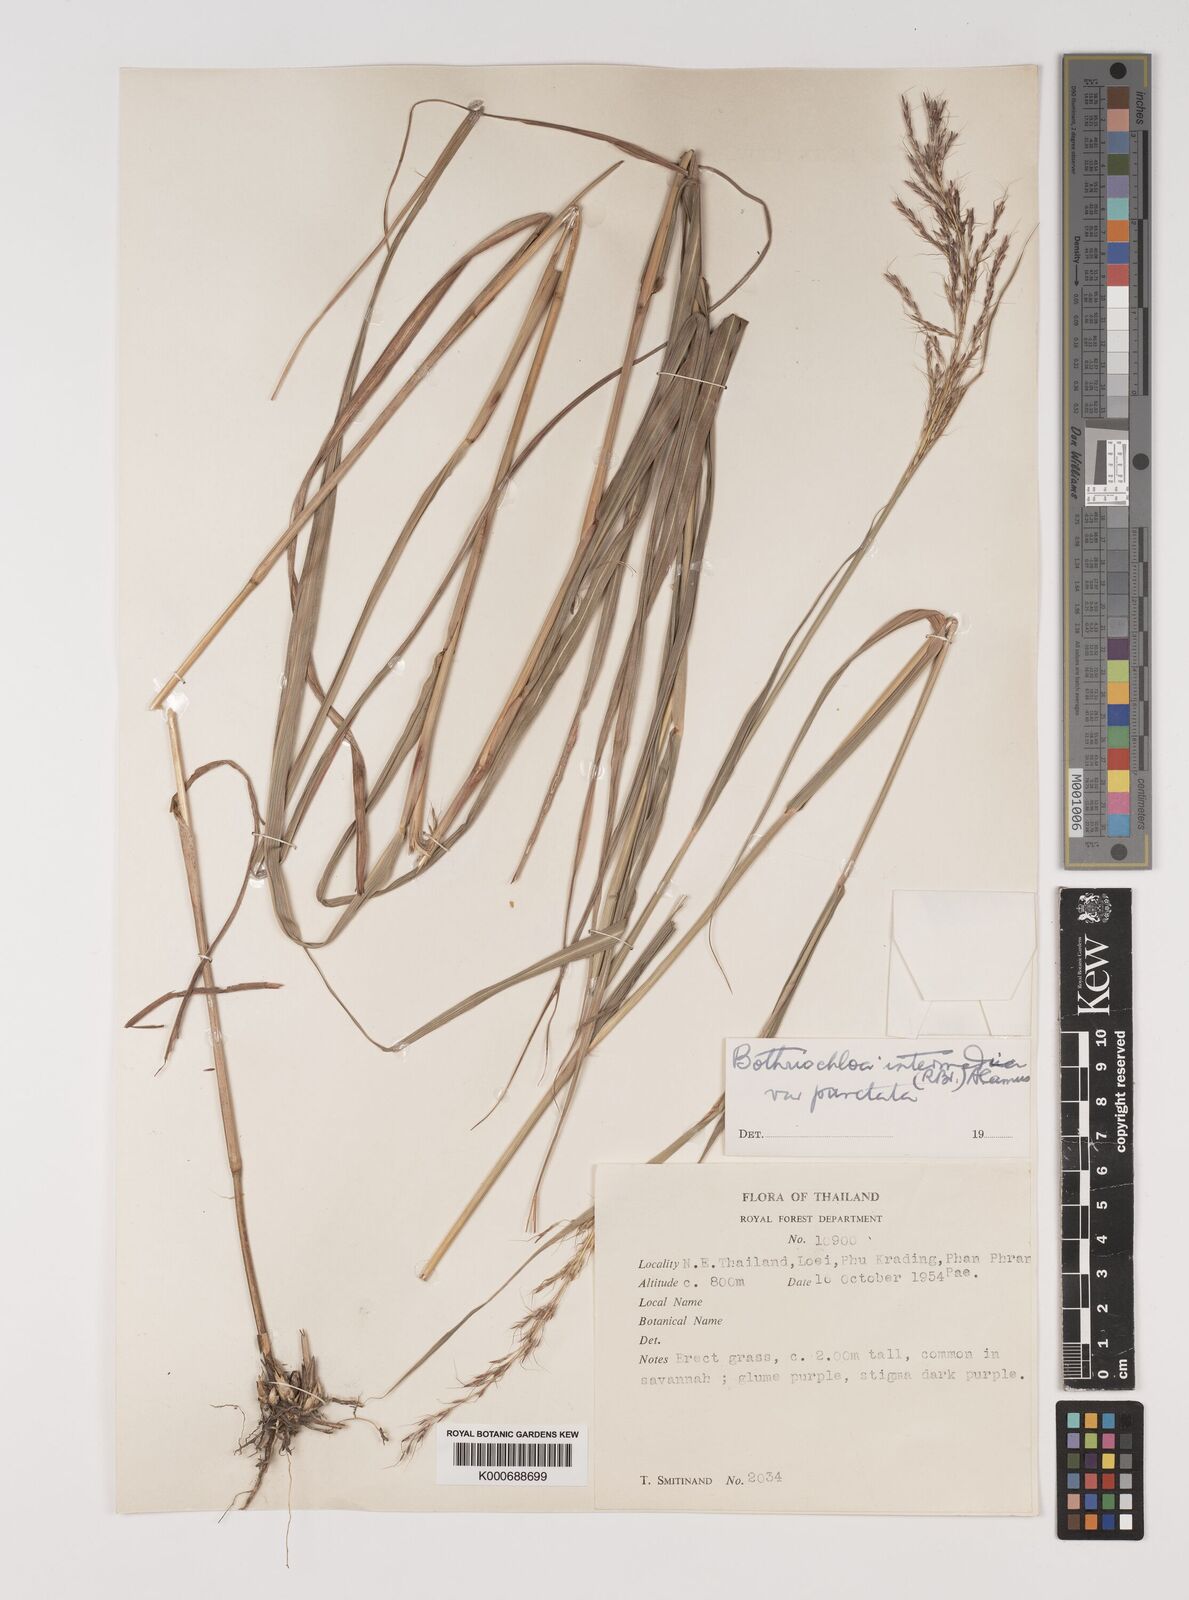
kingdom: Plantae
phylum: Tracheophyta
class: Liliopsida
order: Poales
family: Poaceae
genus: Bothriochloa
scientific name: Bothriochloa bladhii
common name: Caucasian bluestem
